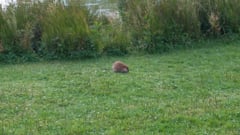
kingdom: Animalia
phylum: Chordata
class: Mammalia
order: Rodentia
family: Cricetidae
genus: Ondatra
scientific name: Ondatra zibethicus
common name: Muskrat
